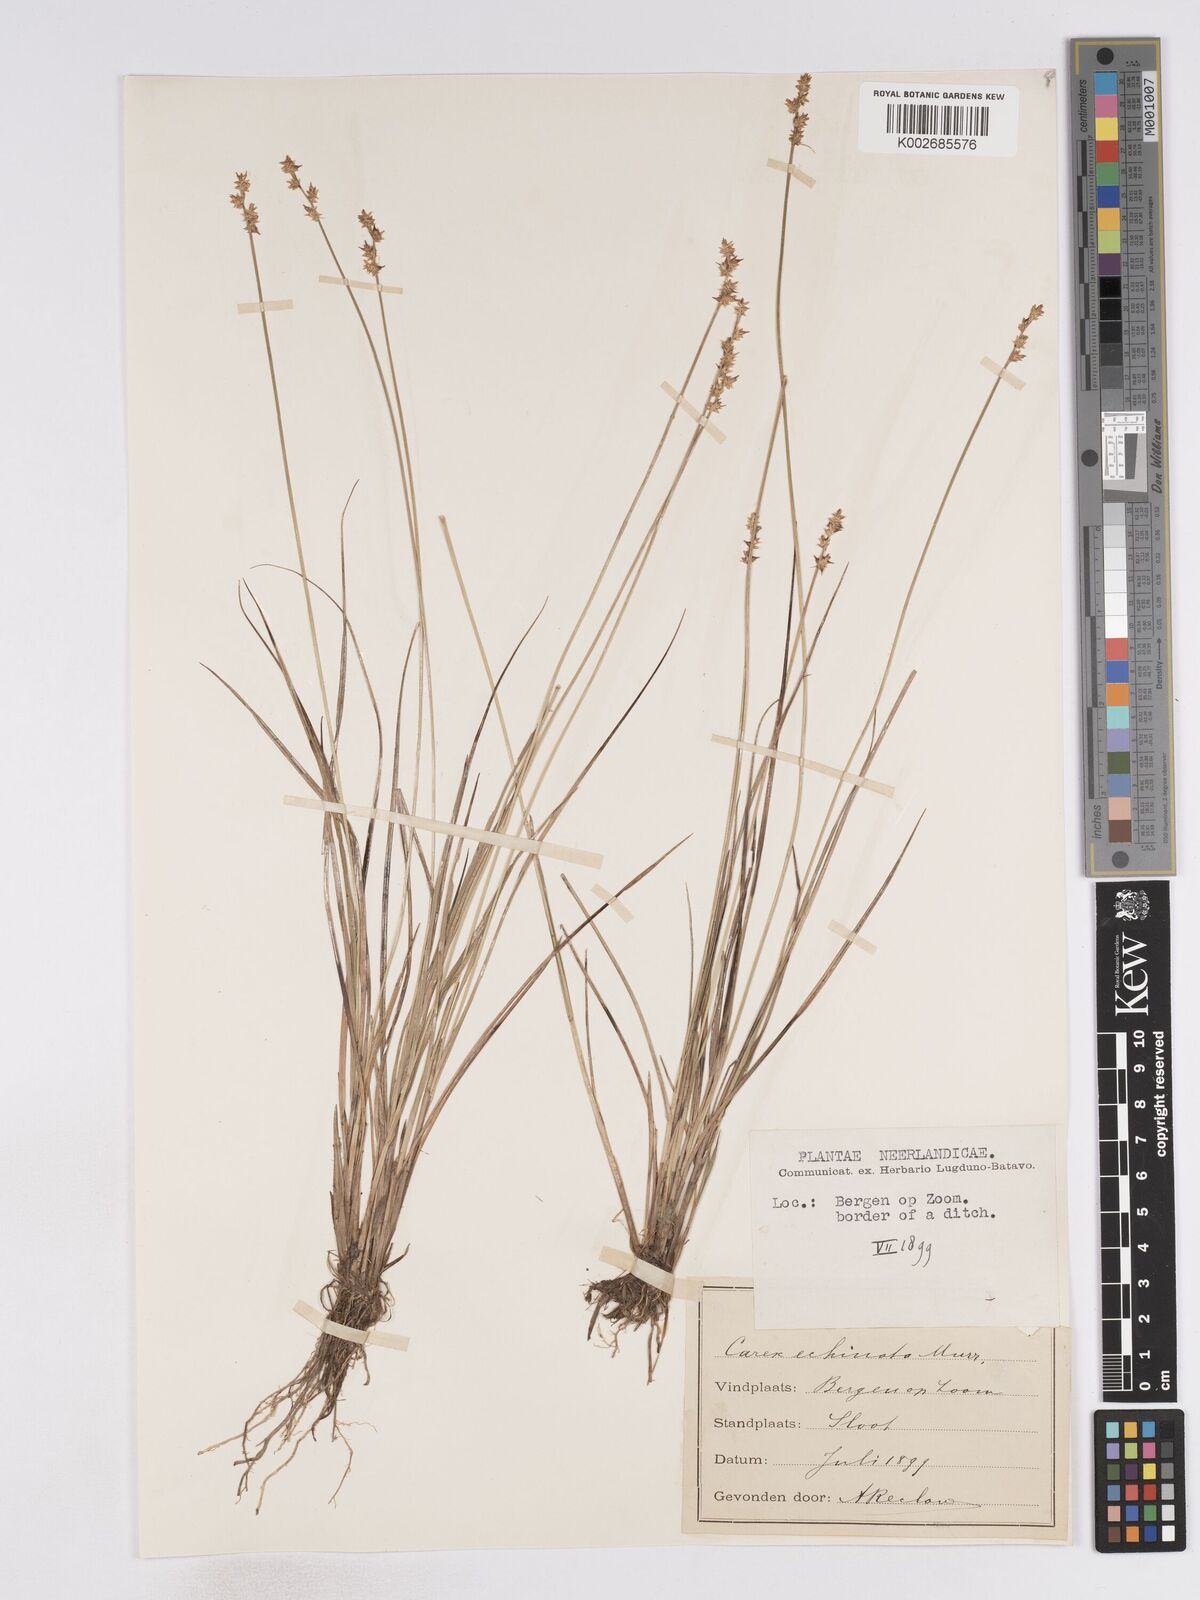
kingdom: Plantae
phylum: Tracheophyta
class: Liliopsida
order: Poales
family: Cyperaceae
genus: Carex
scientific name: Carex echinata
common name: Star sedge
